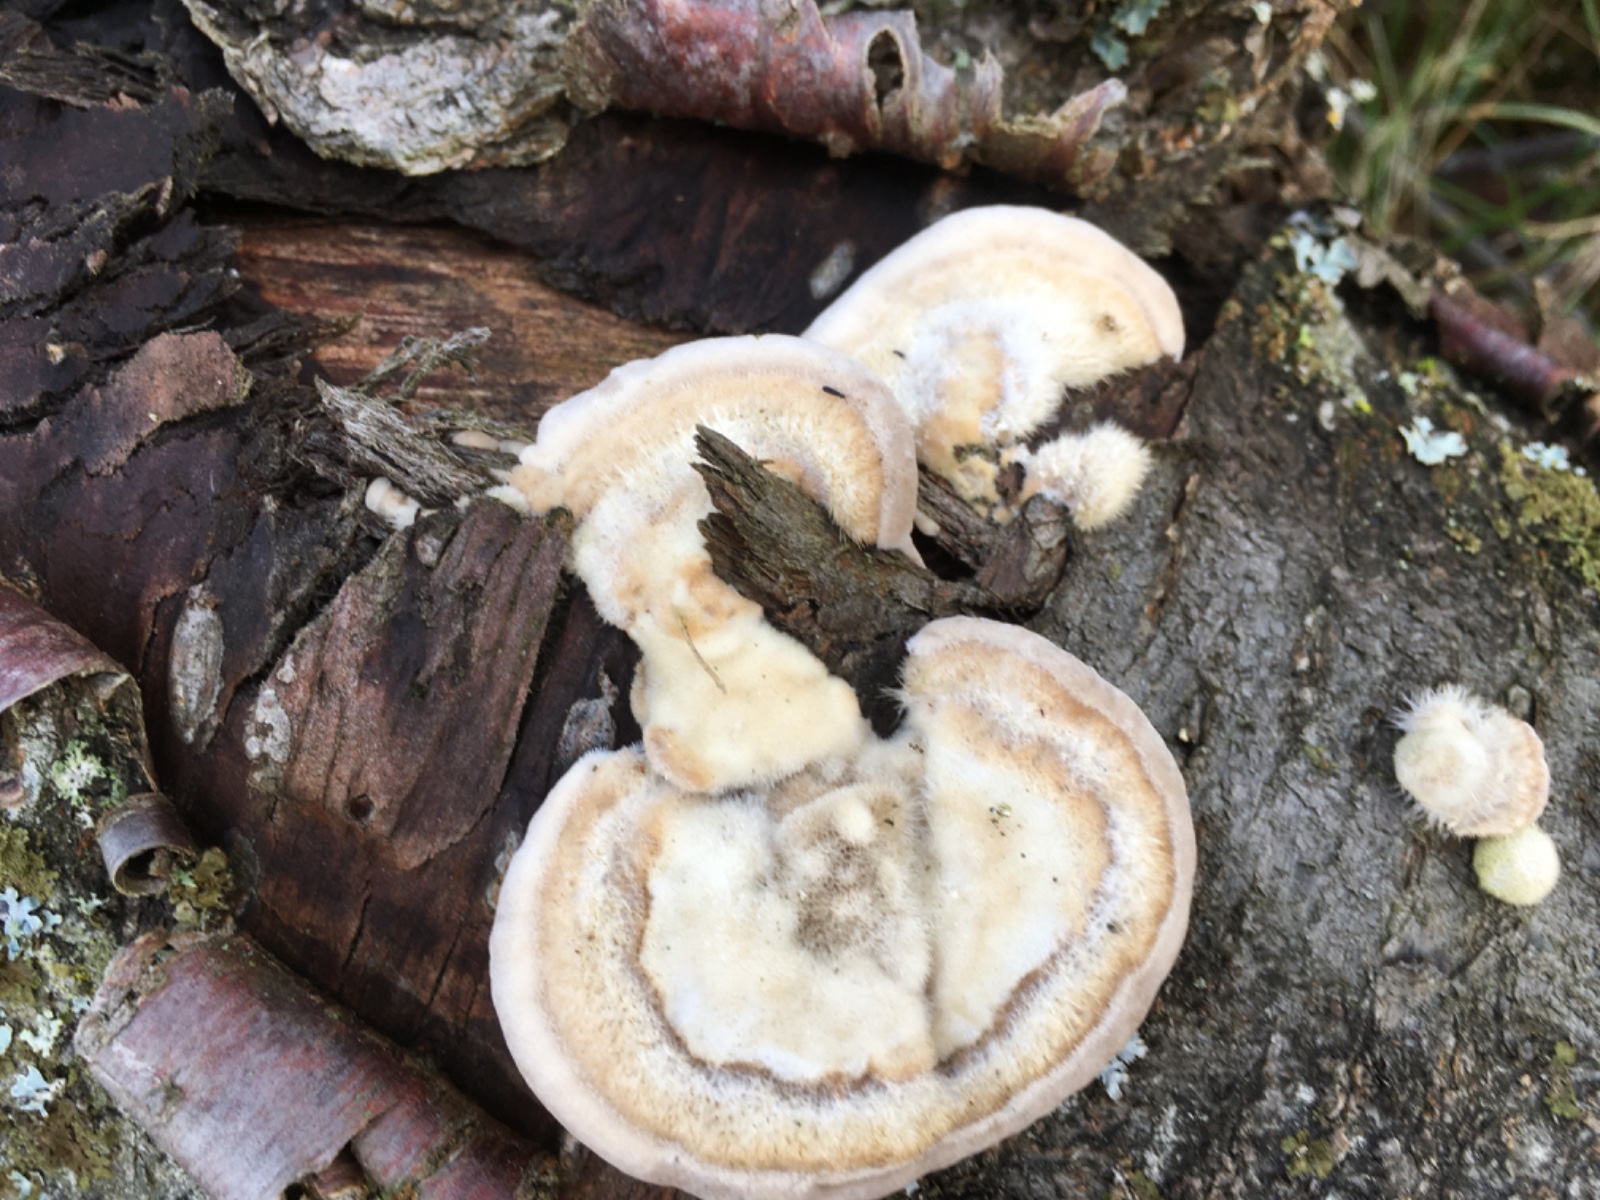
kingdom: Fungi
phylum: Basidiomycota
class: Agaricomycetes
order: Polyporales
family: Polyporaceae
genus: Trametes
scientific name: Trametes hirsuta
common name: håret læderporesvamp
